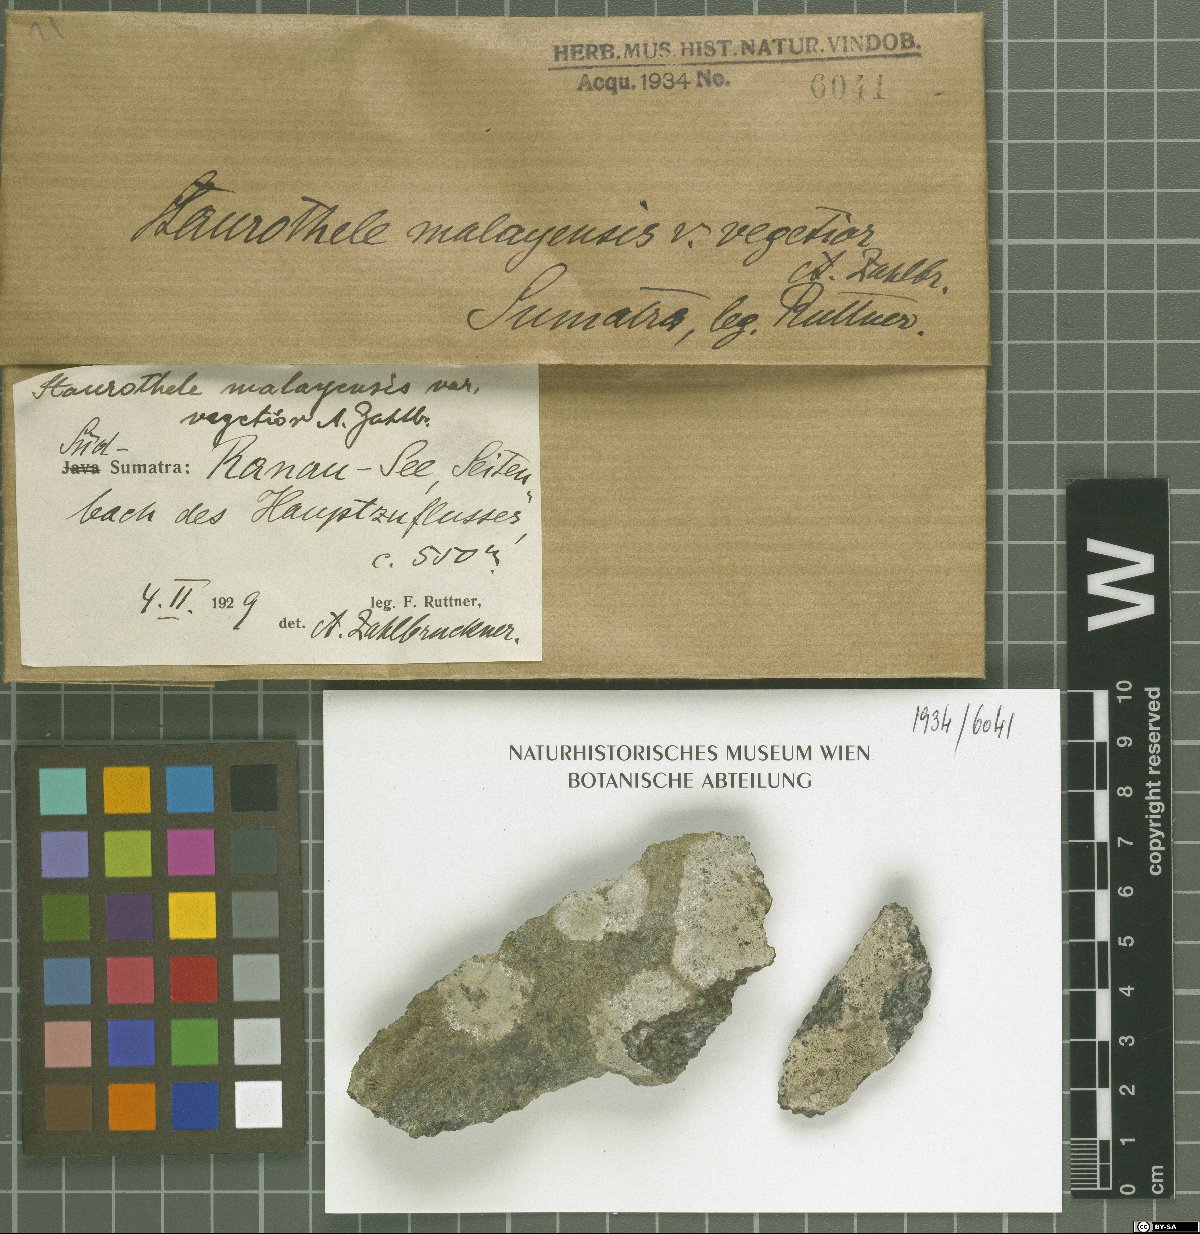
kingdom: Fungi
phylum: Ascomycota
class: Eurotiomycetes
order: Verrucariales
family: Verrucariaceae
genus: Willeya
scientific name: Willeya malayensis
